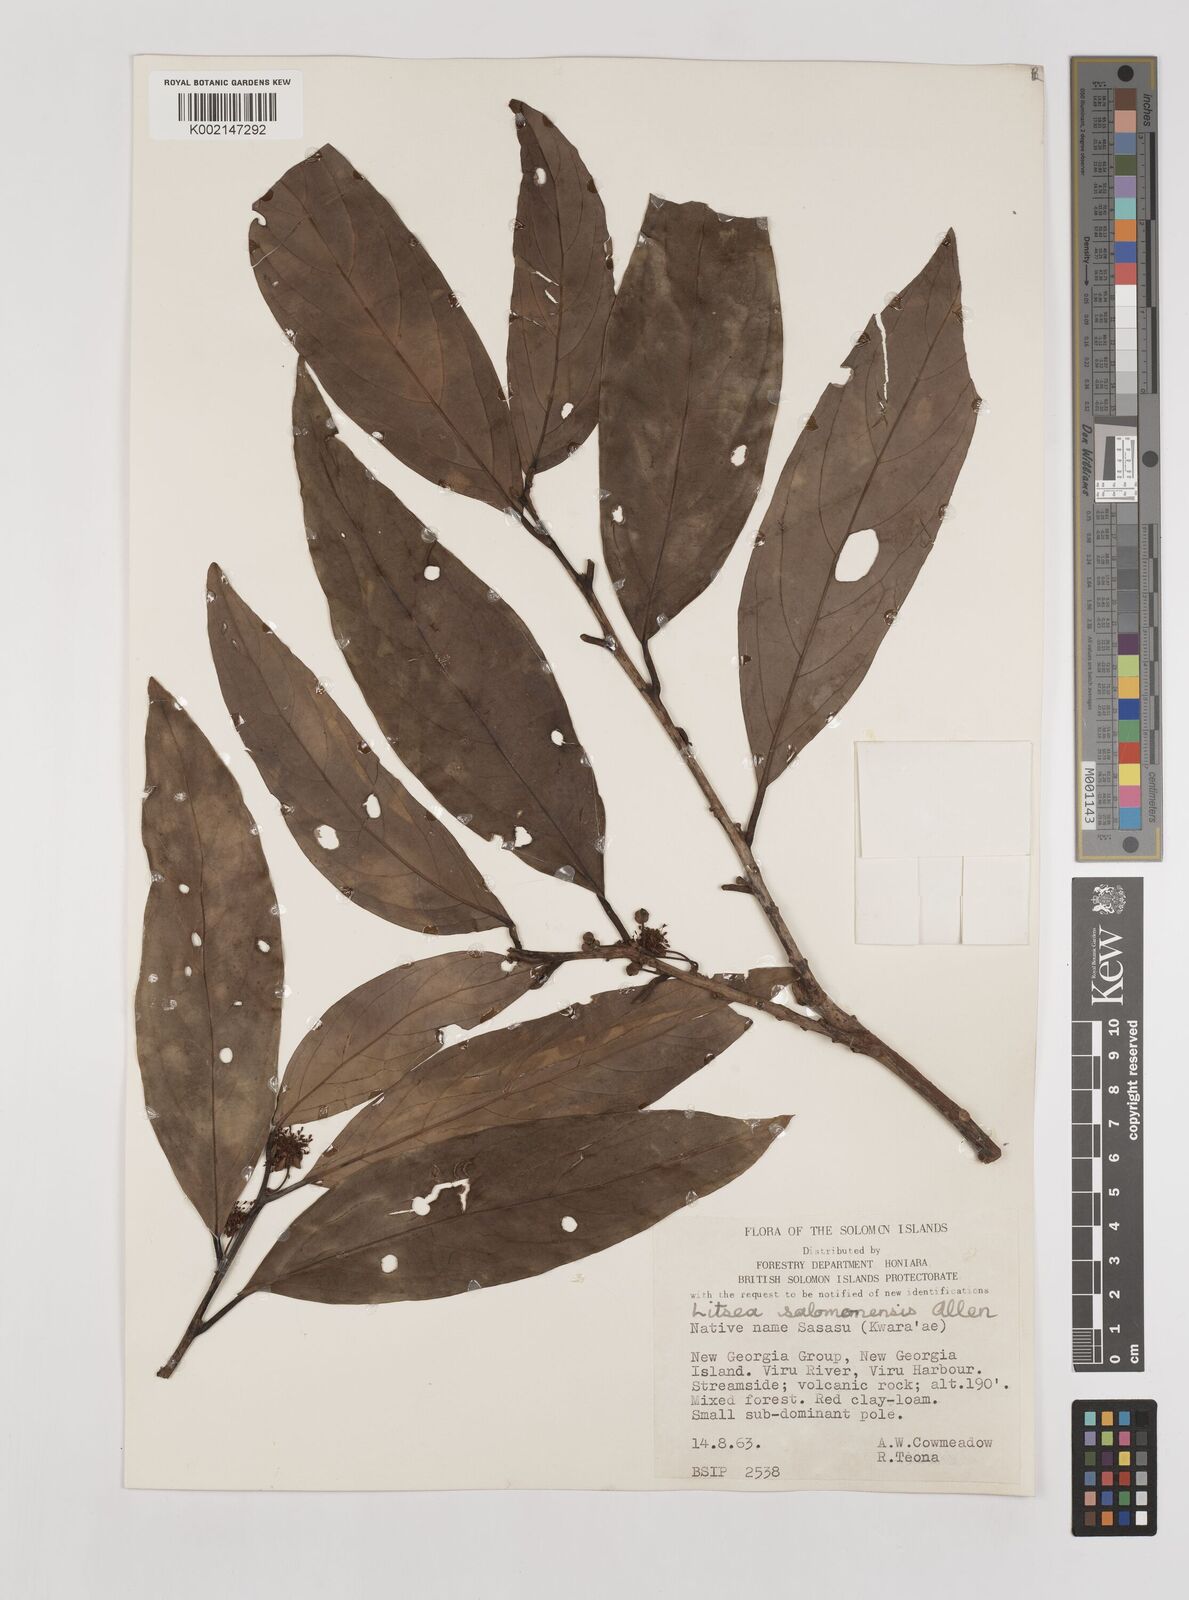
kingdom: Plantae
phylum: Tracheophyta
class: Magnoliopsida
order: Laurales
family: Lauraceae
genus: Litsea
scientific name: Litsea timoriana
